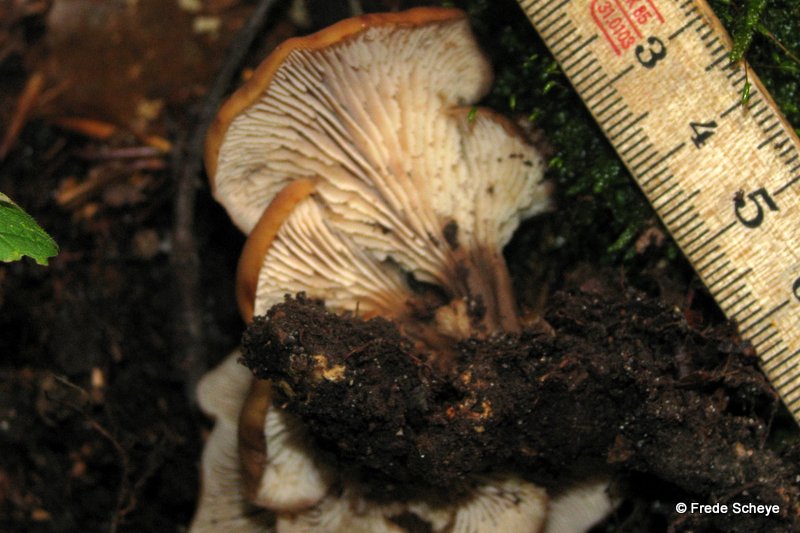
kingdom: Fungi
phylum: Basidiomycota
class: Agaricomycetes
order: Russulales
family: Auriscalpiaceae
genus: Lentinellus
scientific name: Lentinellus cochleatus
